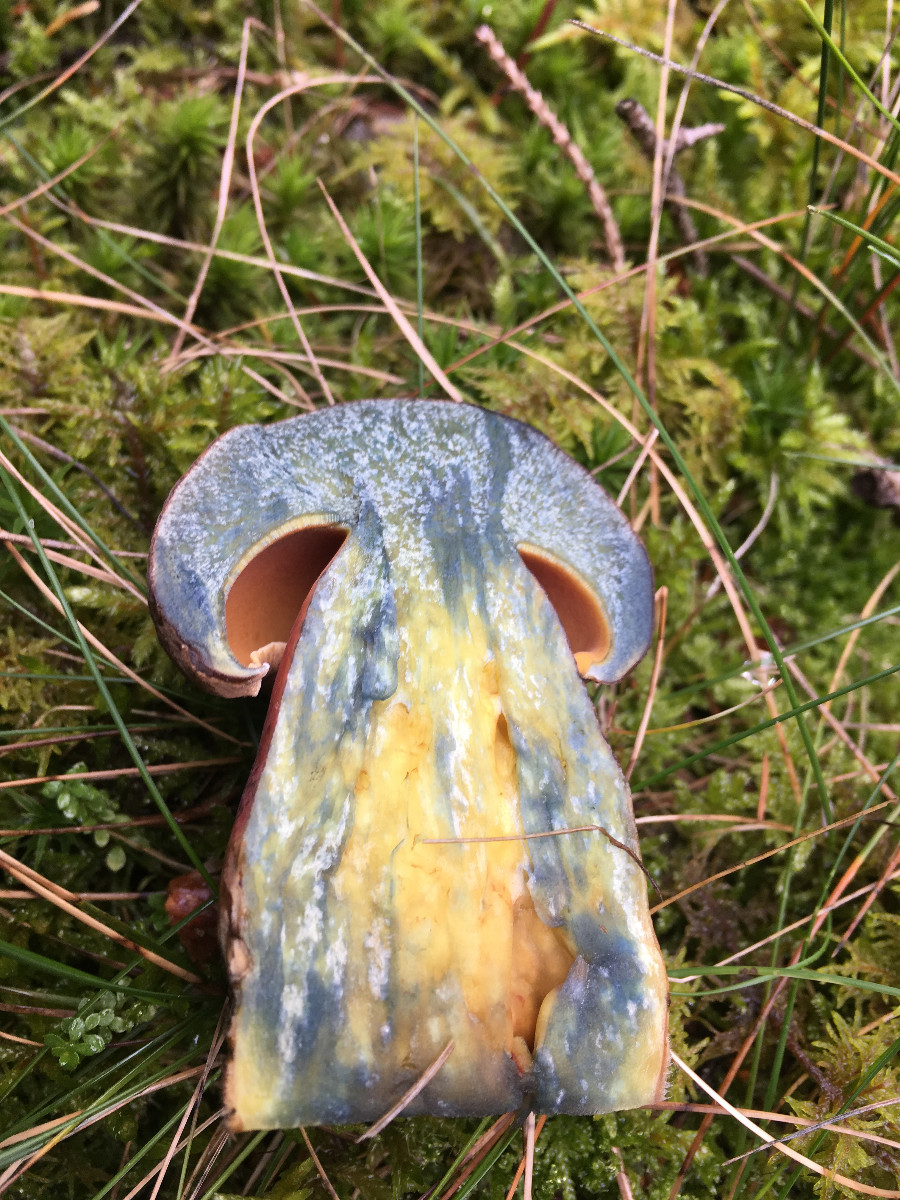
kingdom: Fungi
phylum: Basidiomycota
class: Agaricomycetes
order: Boletales
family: Boletaceae
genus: Neoboletus
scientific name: Neoboletus erythropus
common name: punktstokket indigorørhat
